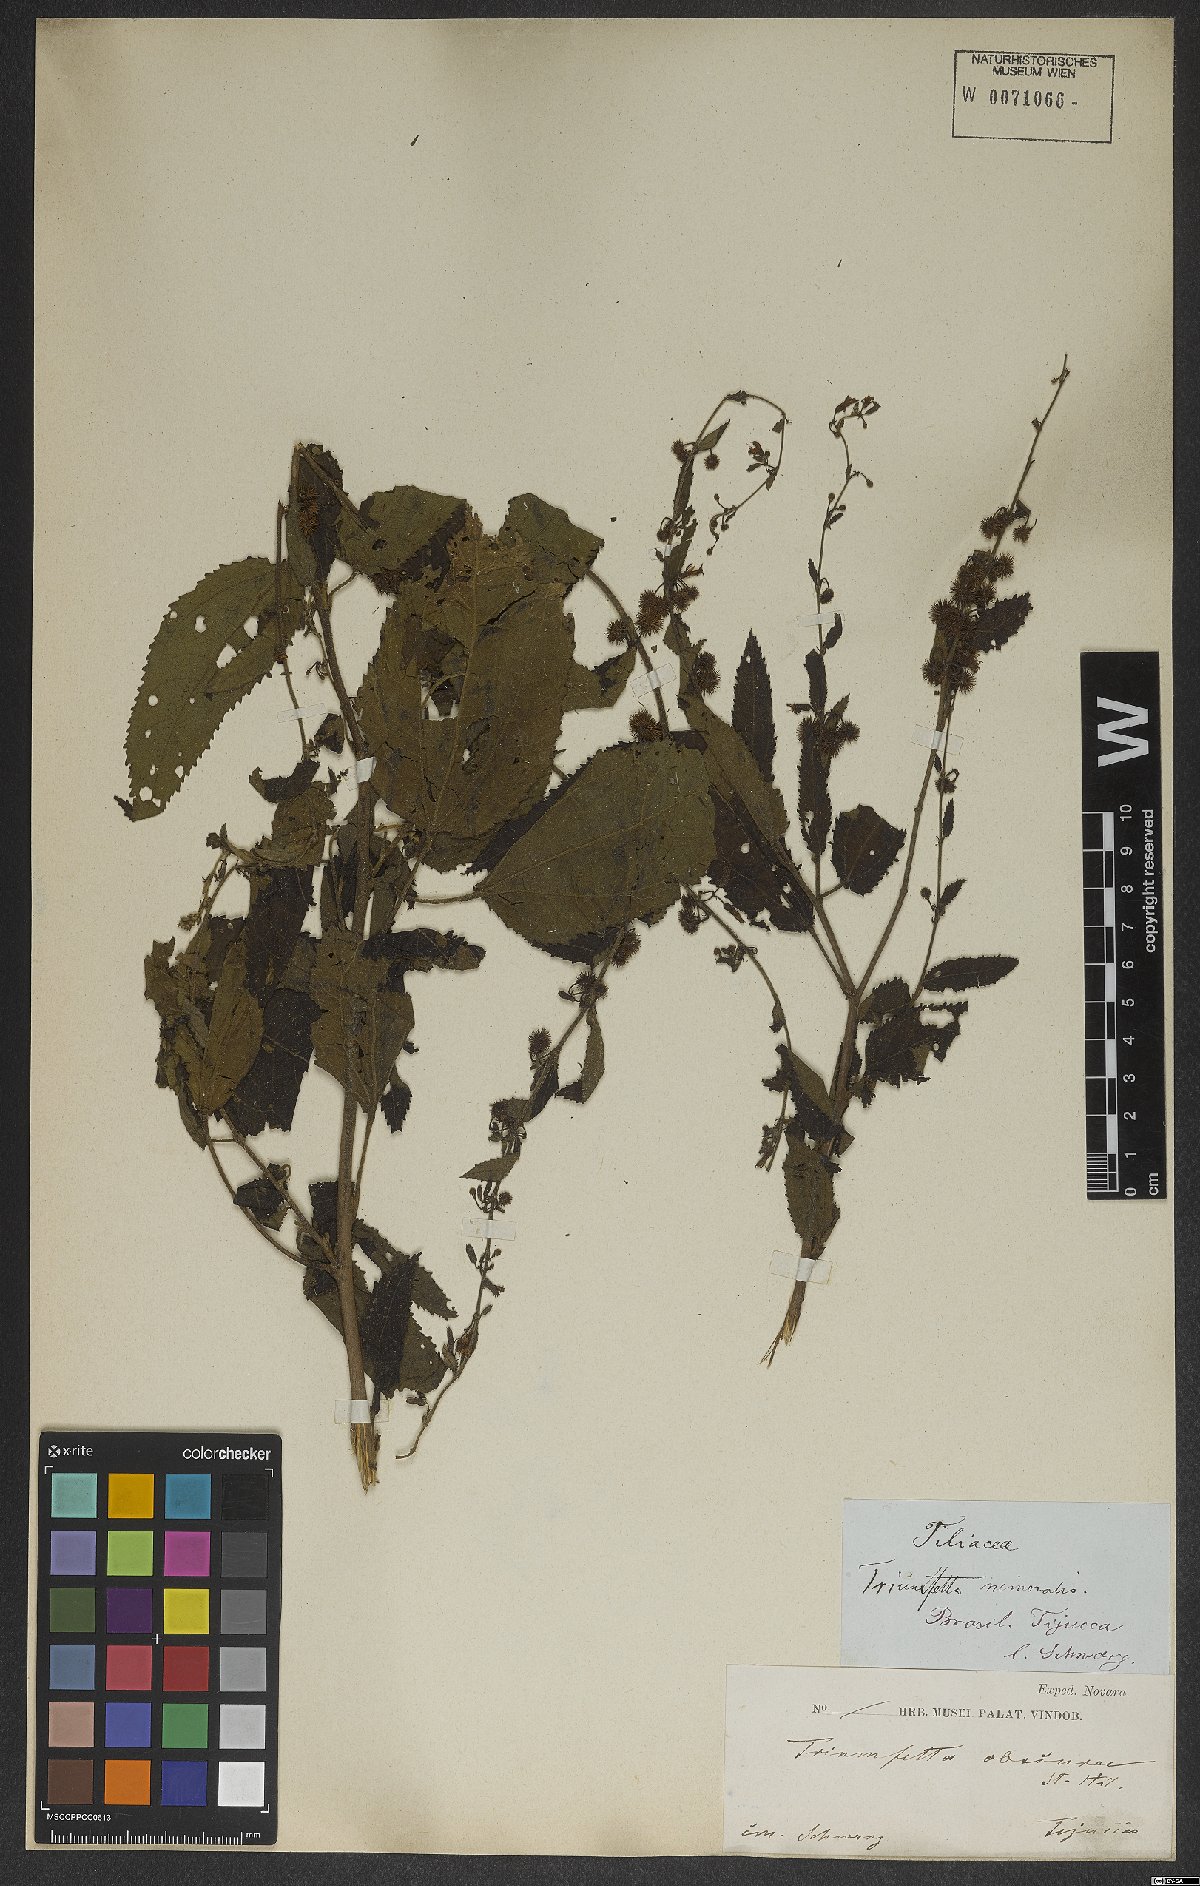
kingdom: Plantae
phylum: Tracheophyta
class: Magnoliopsida
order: Malvales
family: Malvaceae
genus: Triumfetta
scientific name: Triumfetta grandiflora
